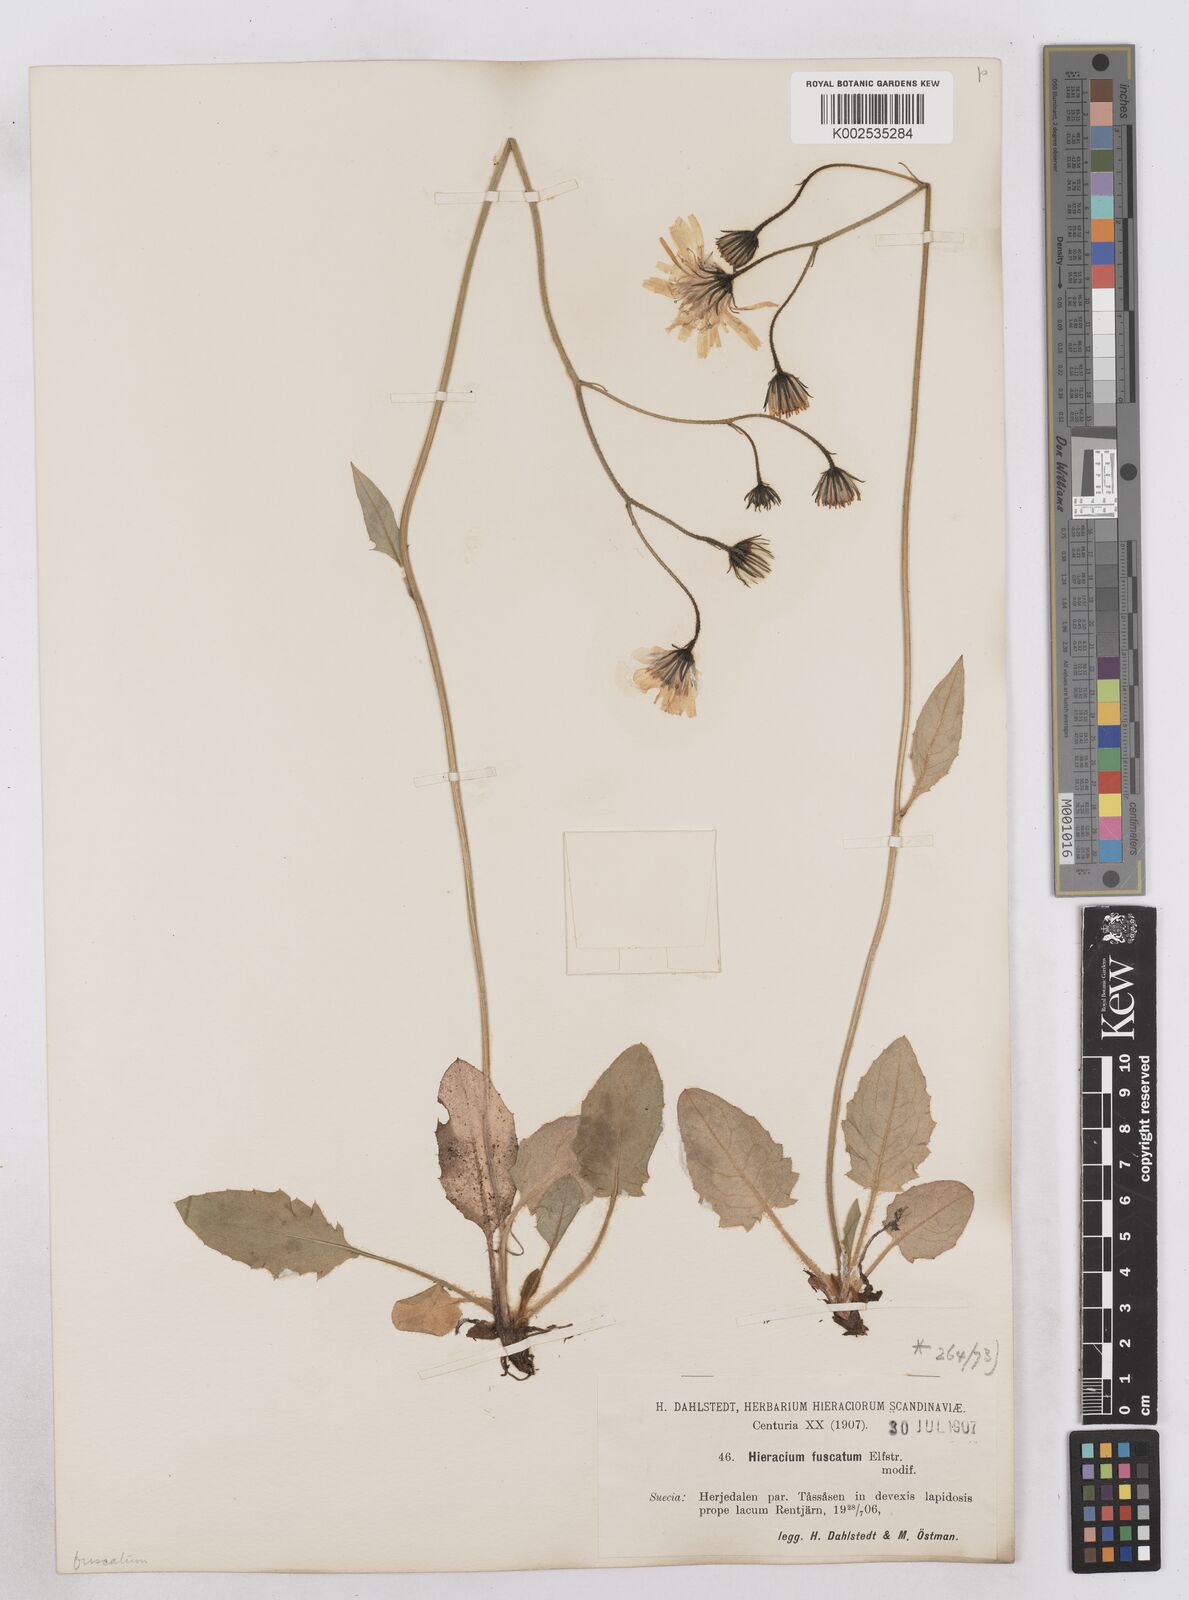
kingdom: Plantae
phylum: Tracheophyta
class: Magnoliopsida
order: Asterales
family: Asteraceae
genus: Hieracium
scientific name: Hieracium atratum
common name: Polar hawkweed
